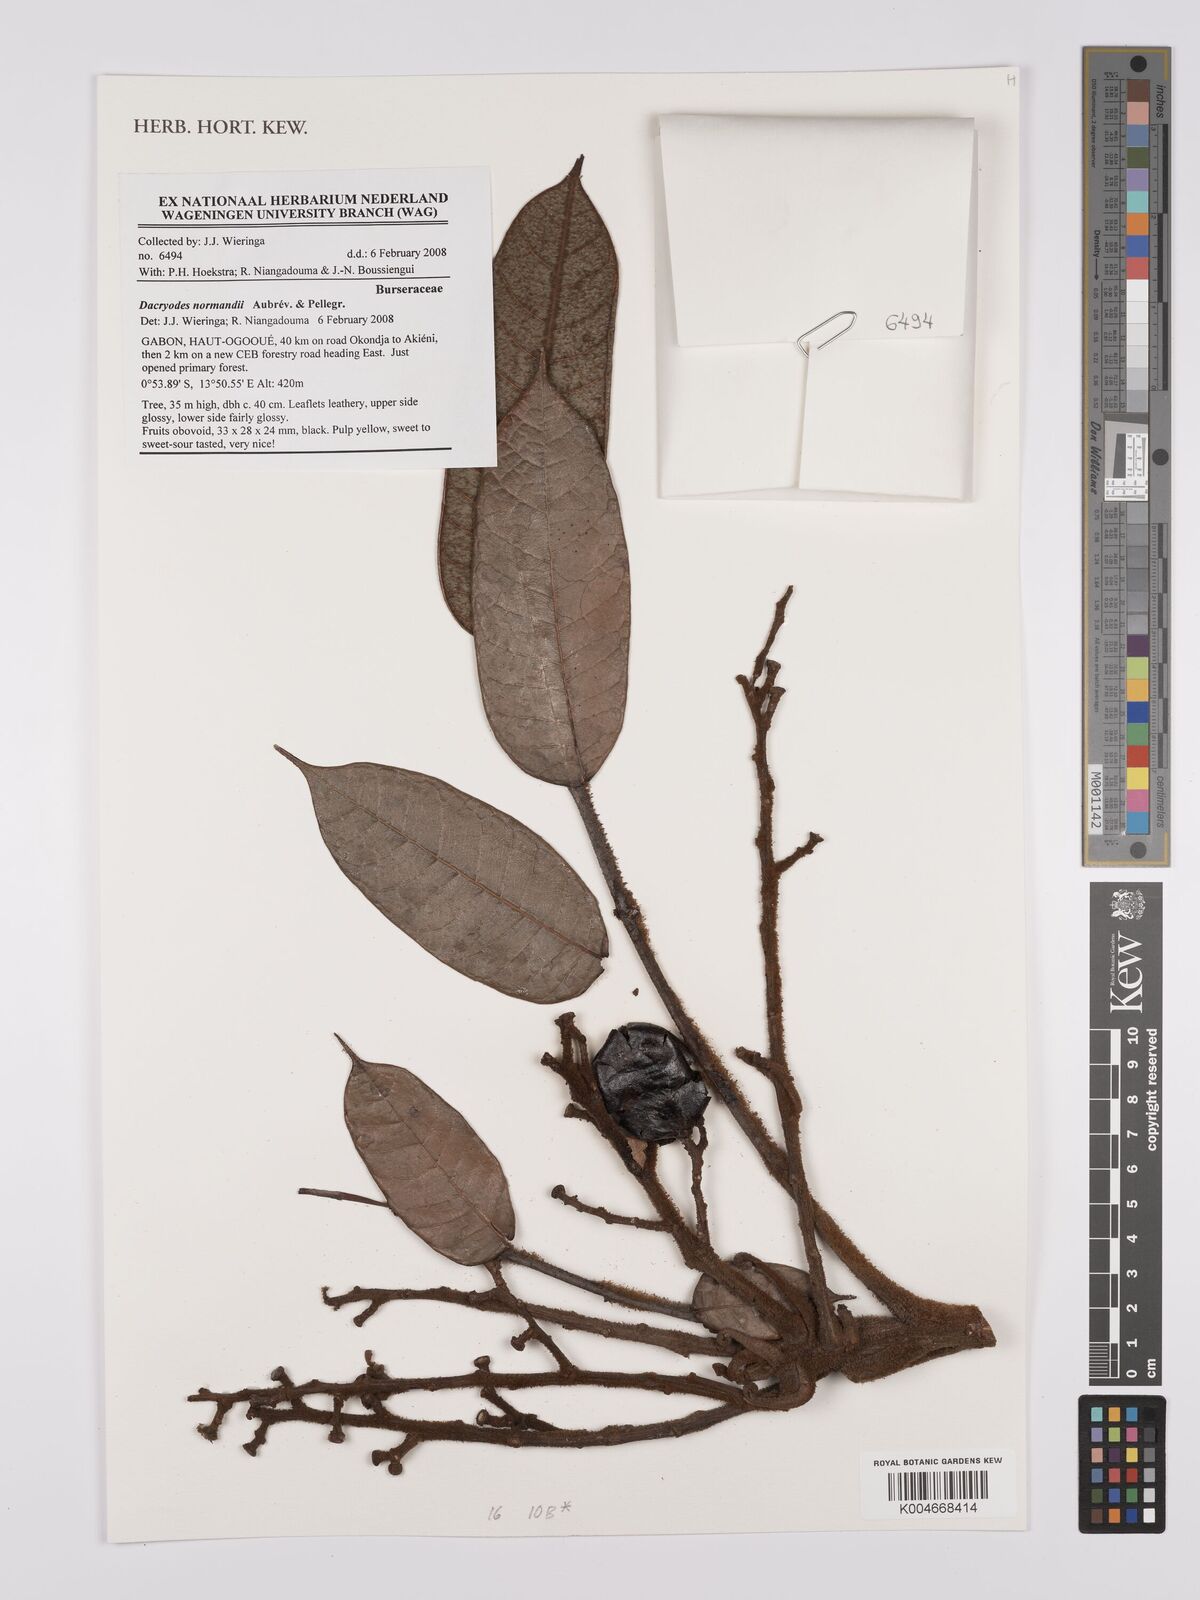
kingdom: Plantae
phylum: Tracheophyta
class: Magnoliopsida
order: Sapindales
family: Burseraceae
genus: Pachylobus
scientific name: Pachylobus normandii
